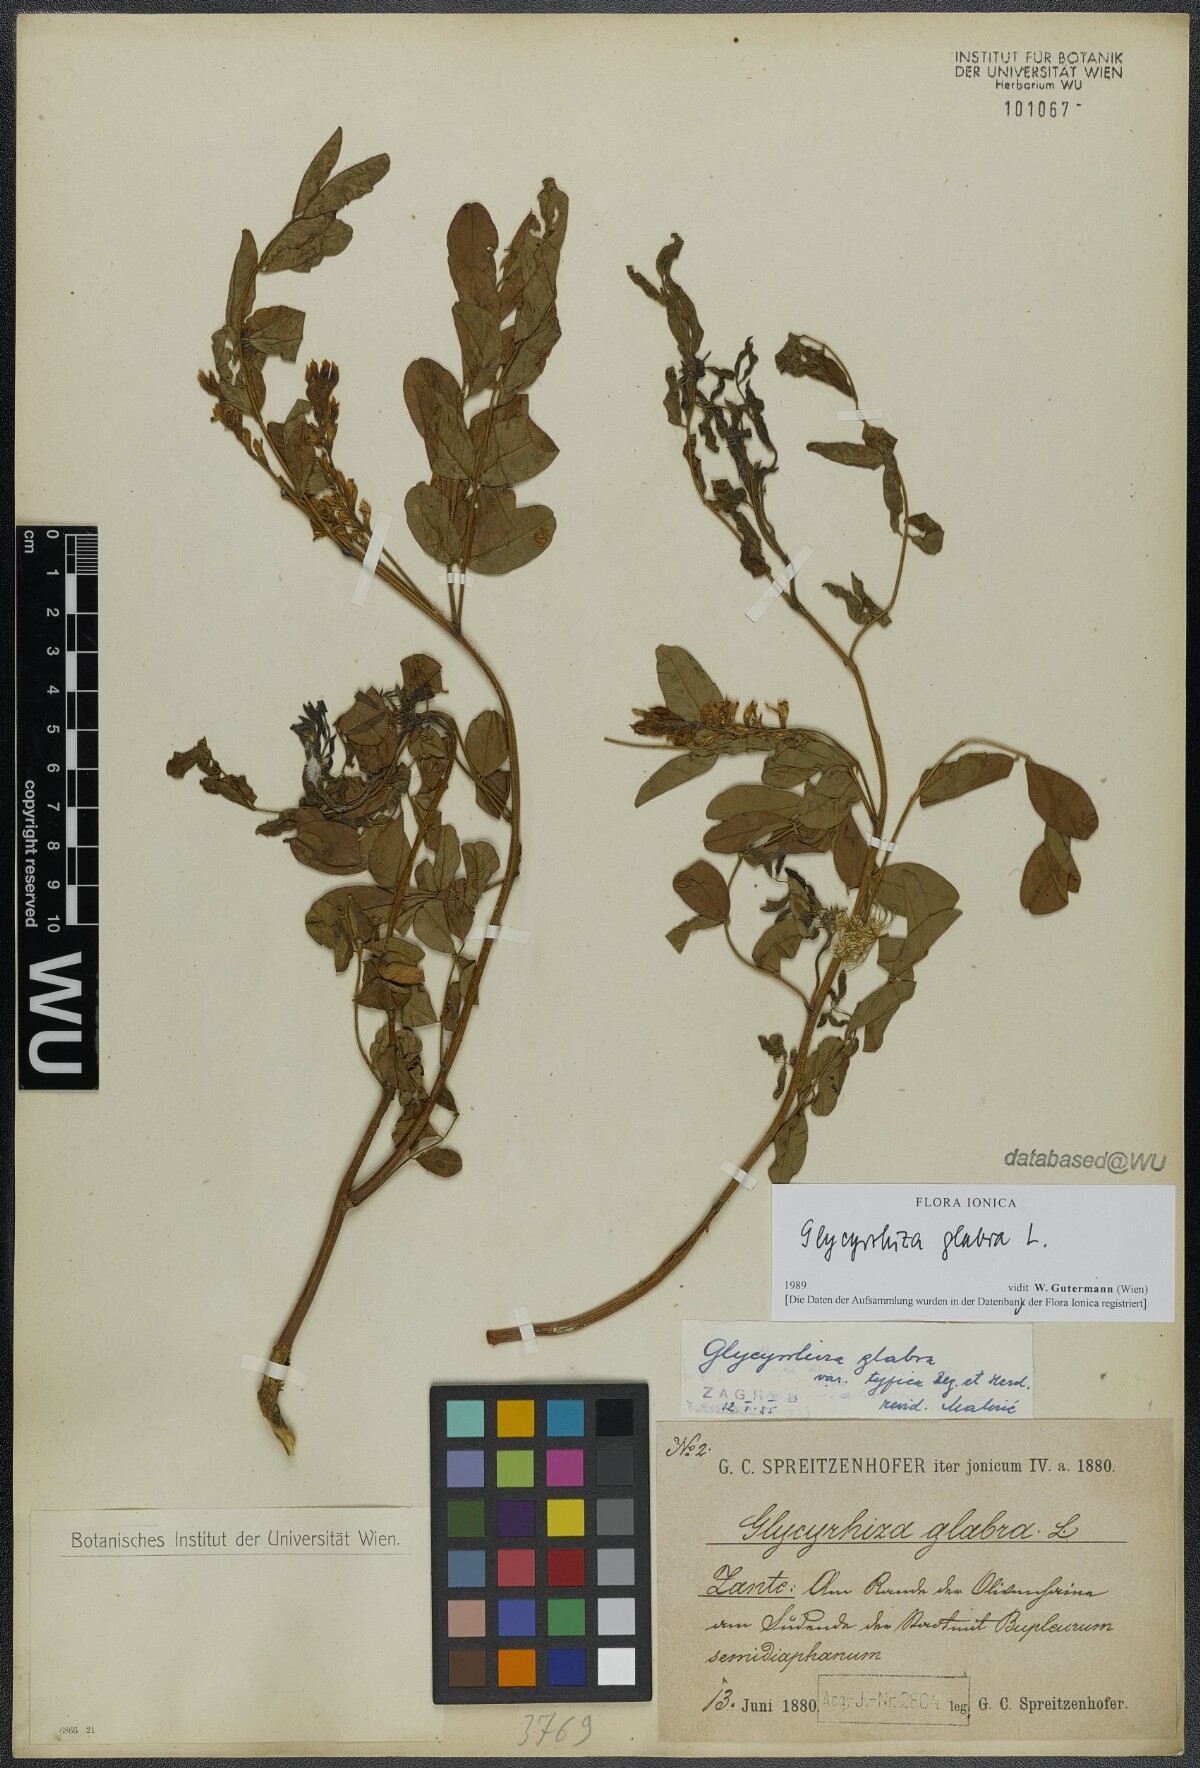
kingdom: Plantae
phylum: Tracheophyta
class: Magnoliopsida
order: Fabales
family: Fabaceae
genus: Glycyrrhiza
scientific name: Glycyrrhiza glabra
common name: Liquorice
